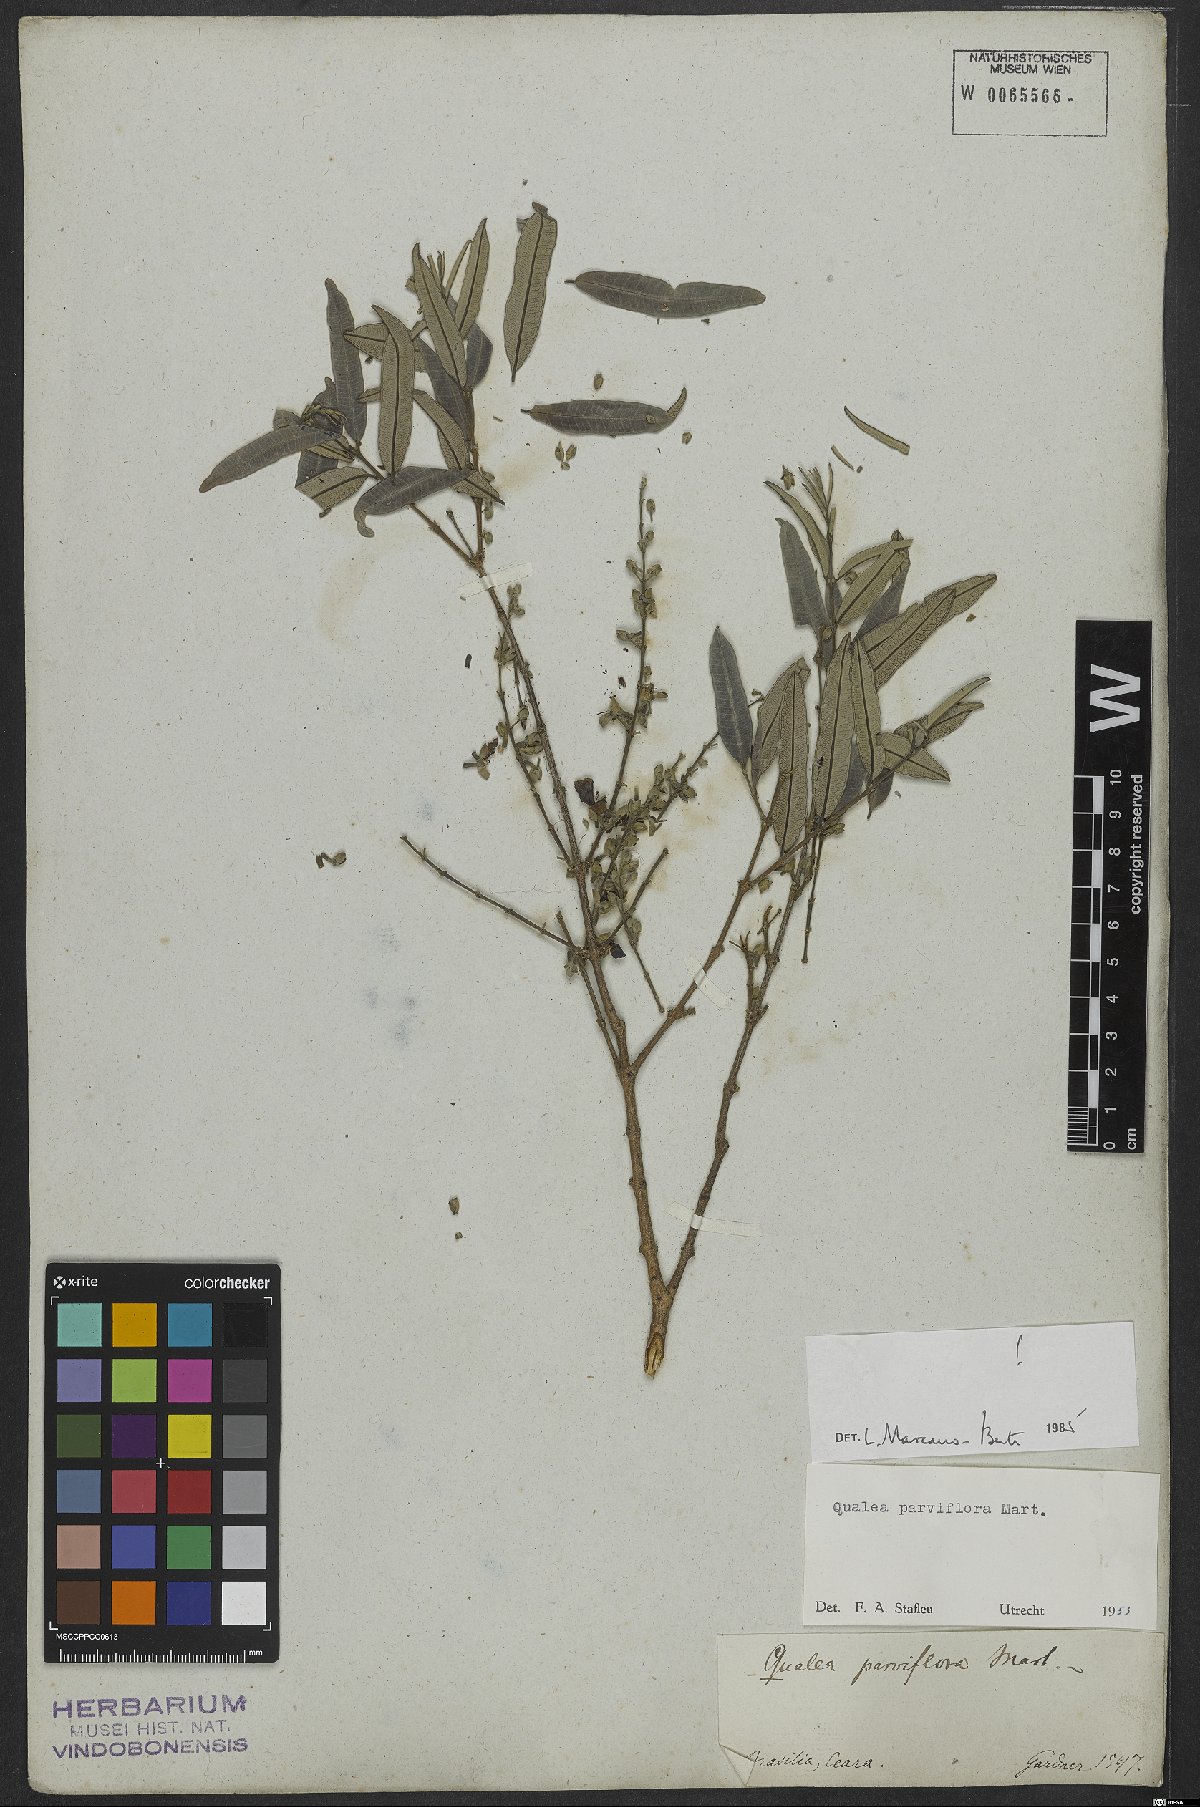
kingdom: Plantae
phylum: Tracheophyta
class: Magnoliopsida
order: Myrtales
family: Vochysiaceae
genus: Qualea
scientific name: Qualea parviflora
